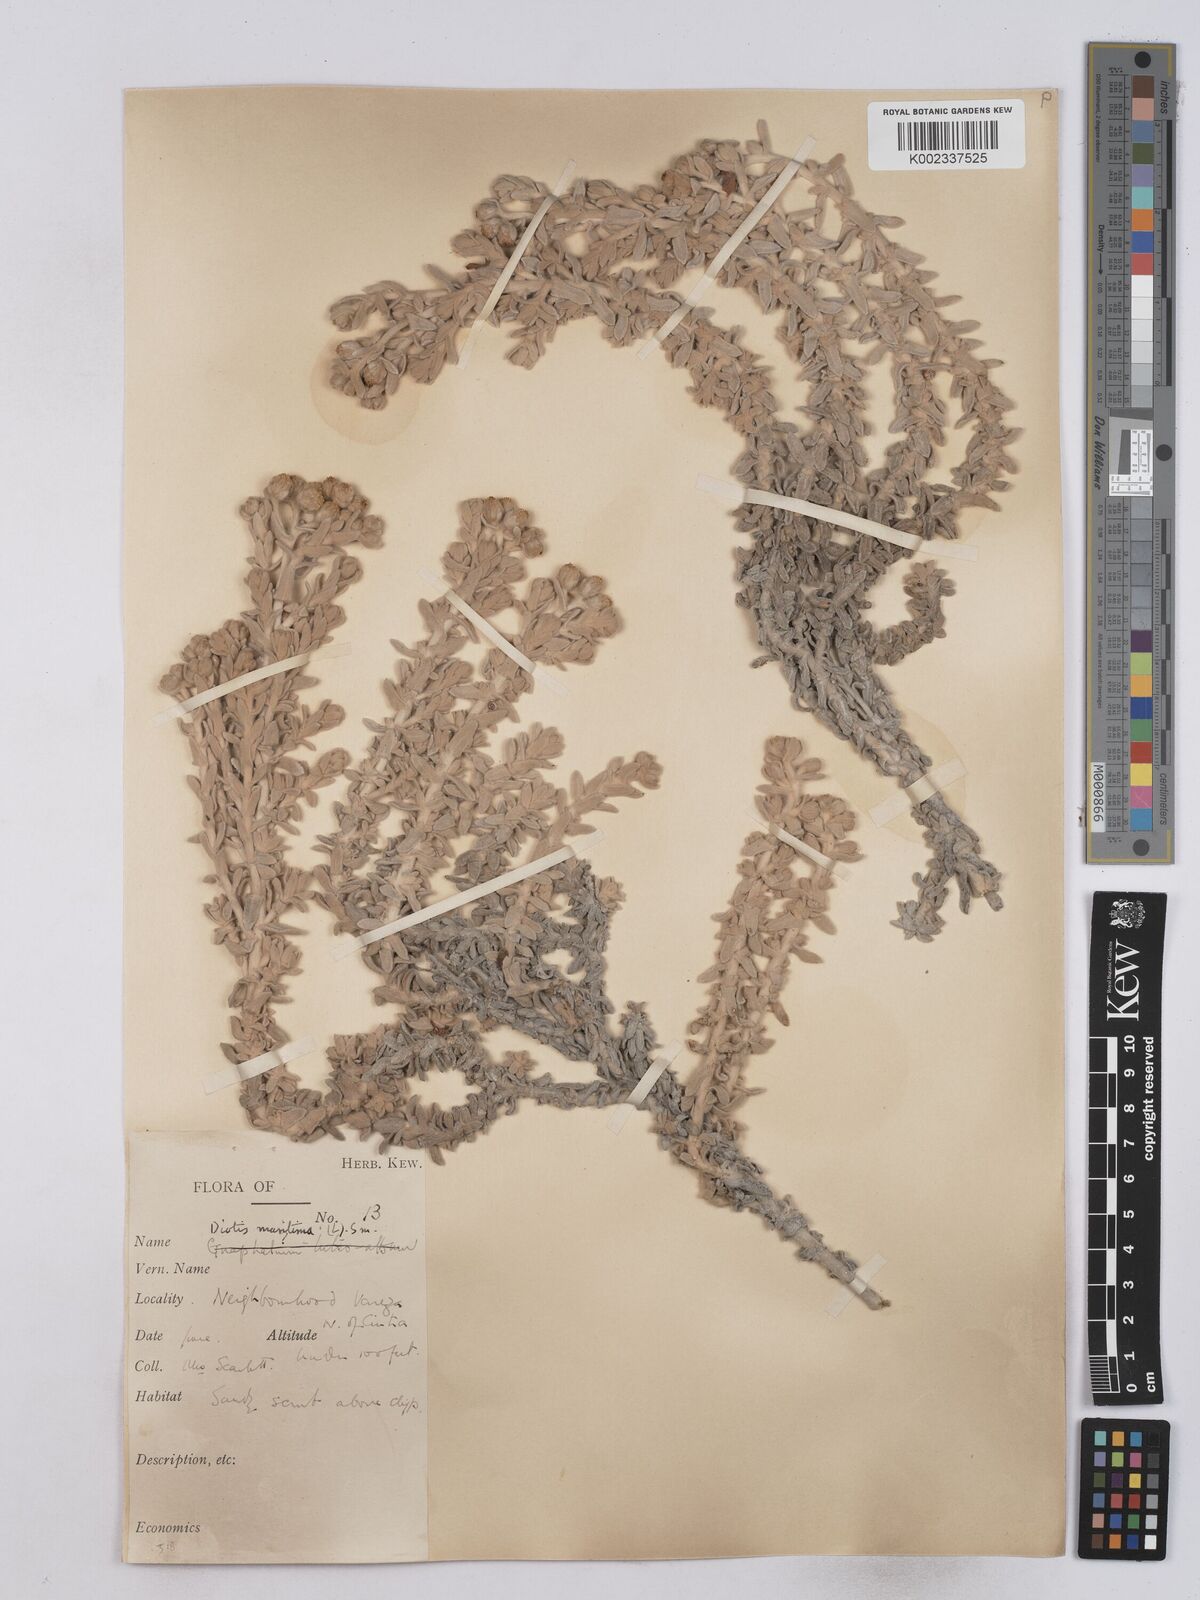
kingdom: Plantae
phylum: Tracheophyta
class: Magnoliopsida
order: Asterales
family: Asteraceae
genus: Achillea
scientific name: Achillea maritima
